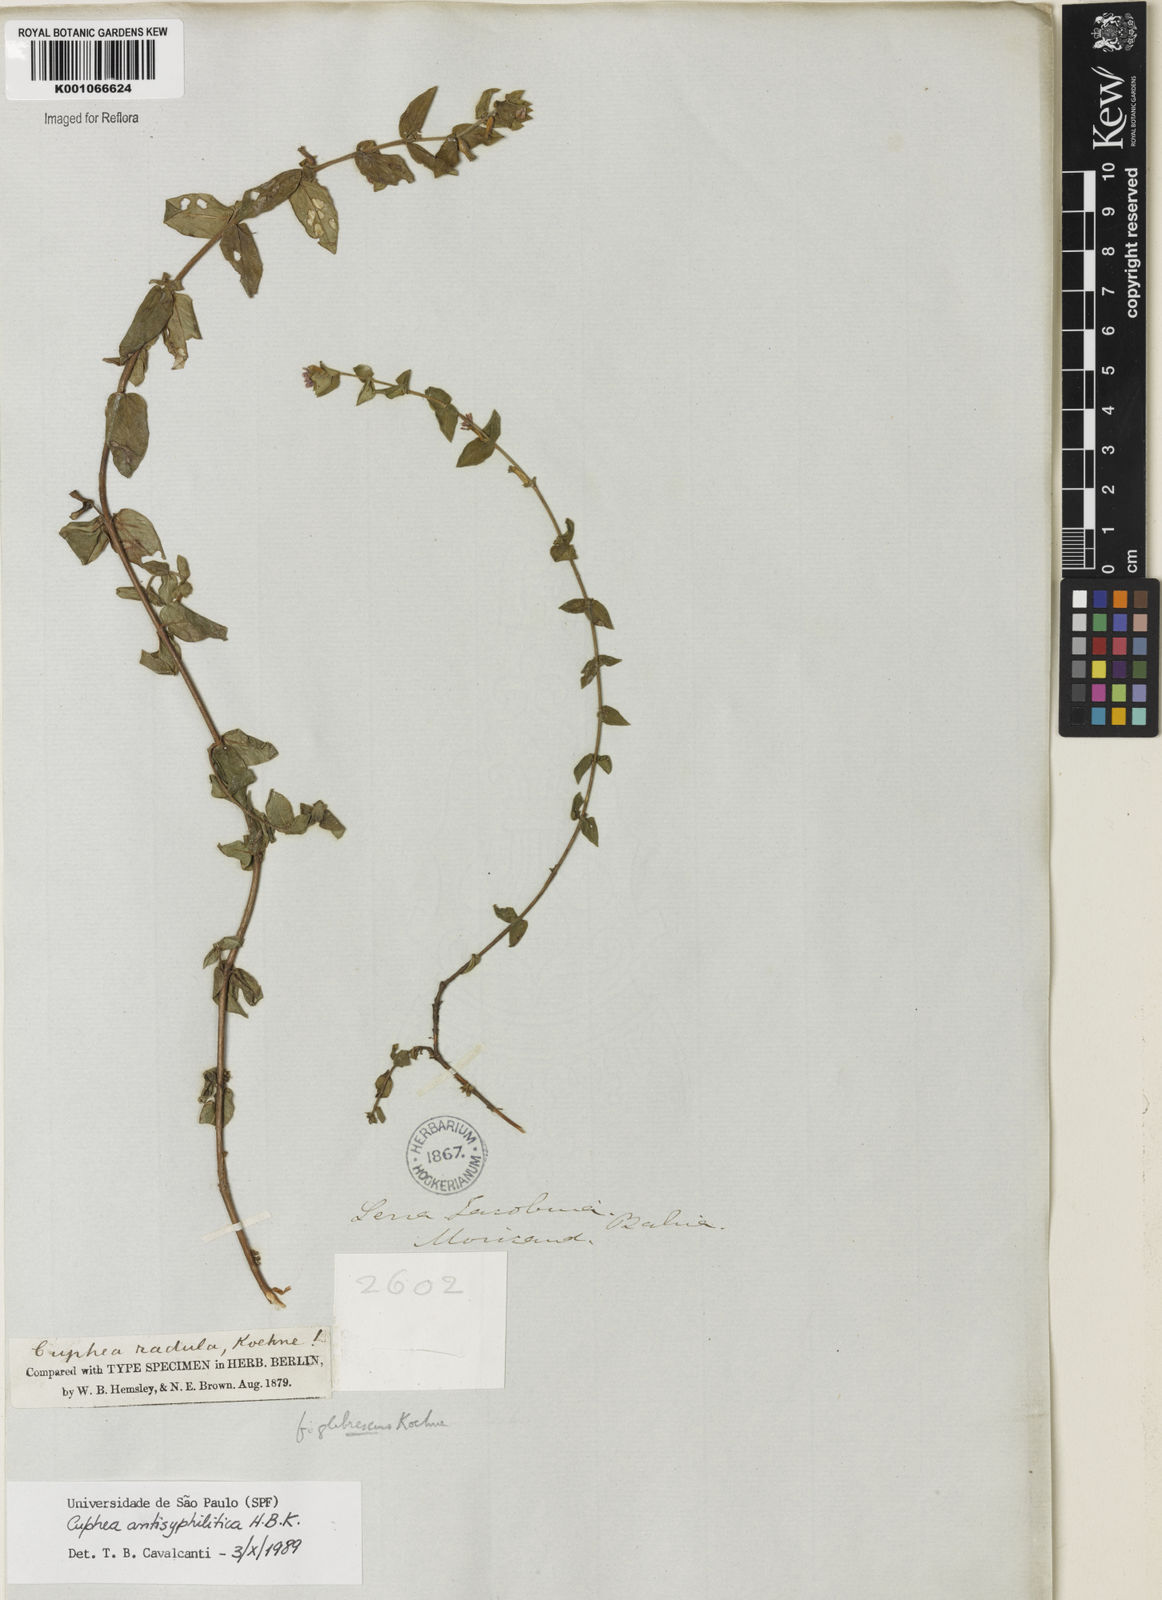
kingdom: Plantae
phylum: Tracheophyta
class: Magnoliopsida
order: Myrtales
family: Lythraceae
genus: Cuphea
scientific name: Cuphea antisyphilitica
